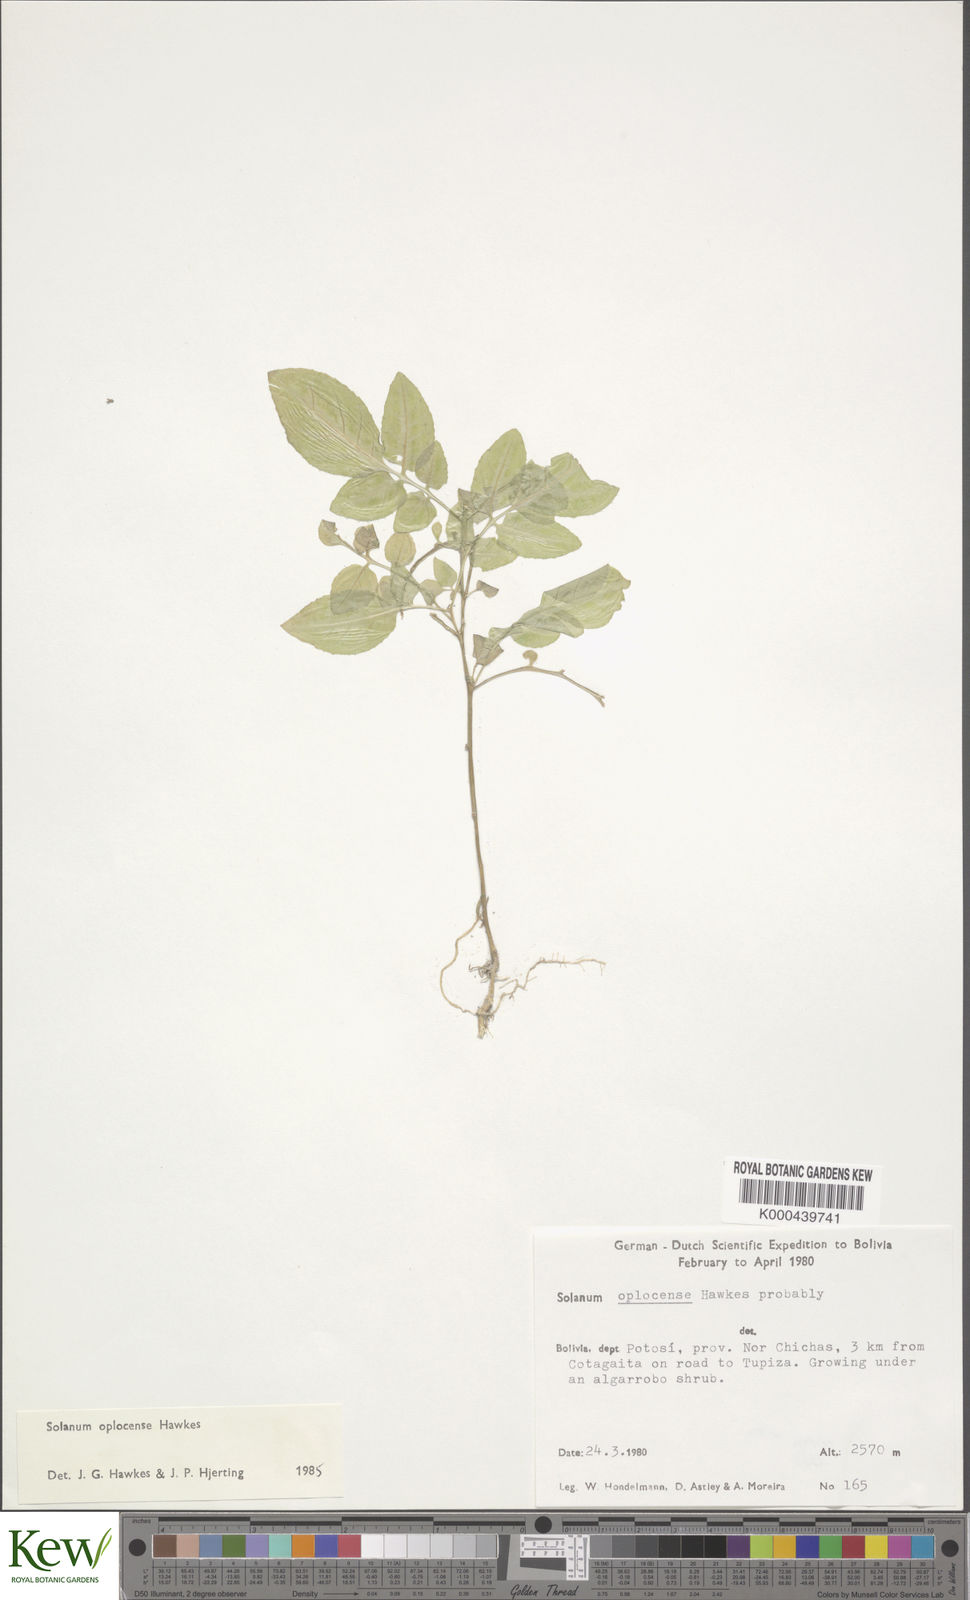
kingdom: Plantae
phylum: Tracheophyta
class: Magnoliopsida
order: Solanales
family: Solanaceae
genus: Solanum
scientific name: Solanum brevicaule
